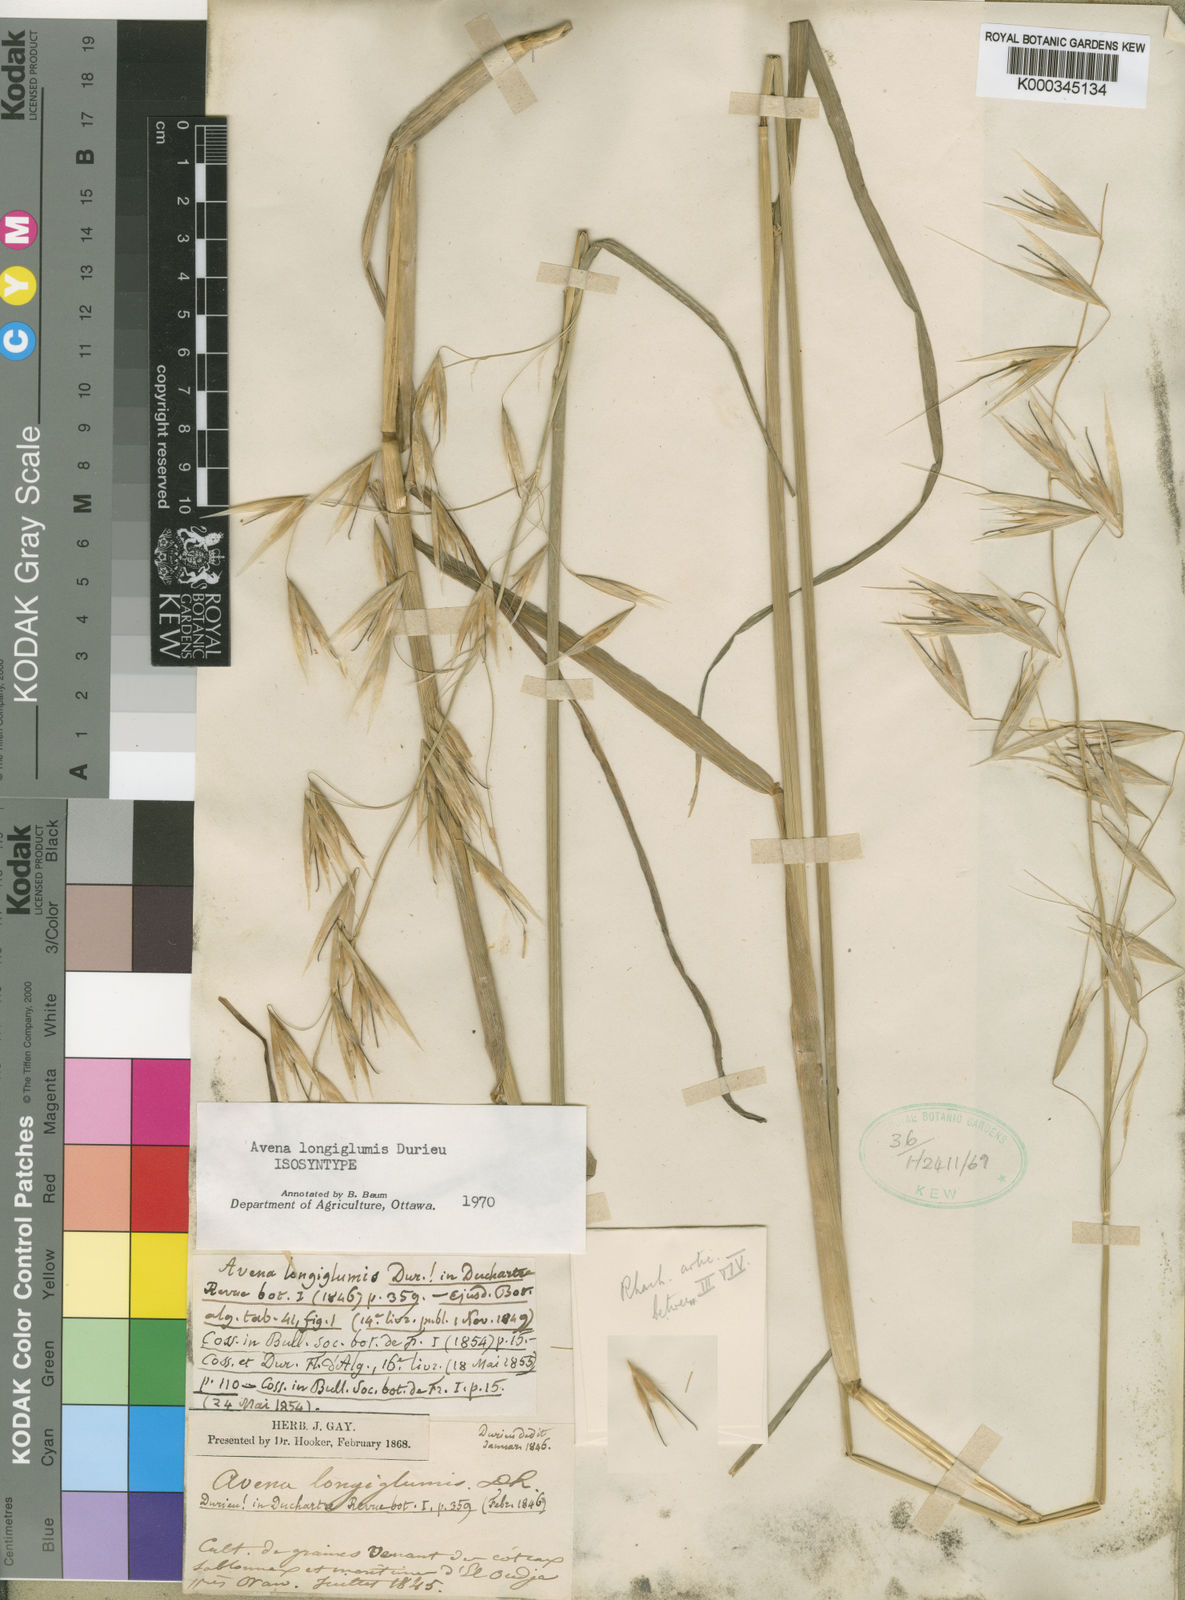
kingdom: Plantae
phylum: Tracheophyta
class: Liliopsida
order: Poales
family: Poaceae
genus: Avena
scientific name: Avena longiglumis
